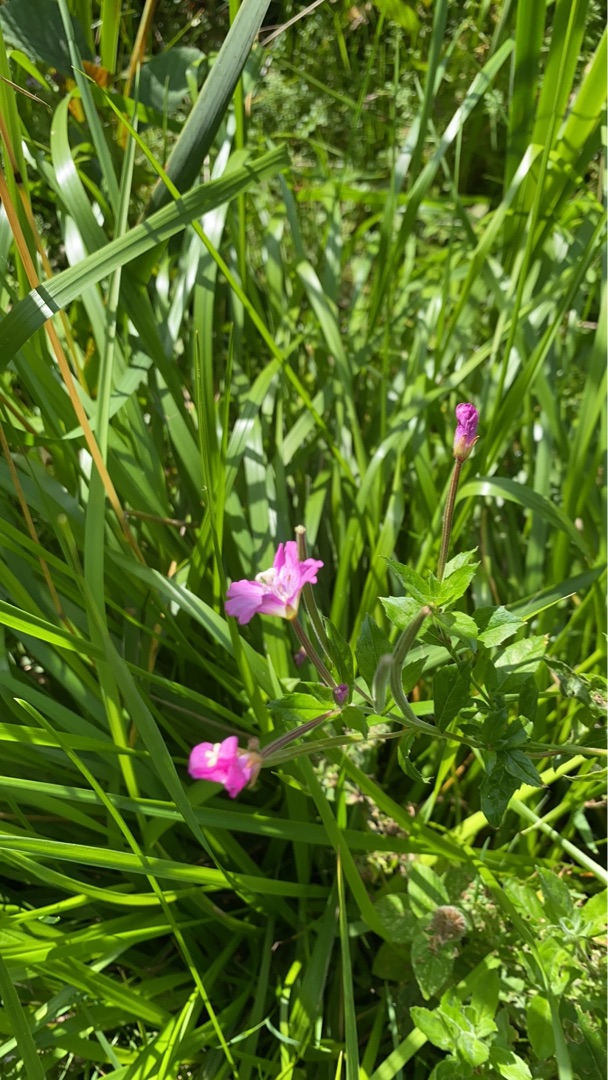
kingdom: Plantae
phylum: Tracheophyta
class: Magnoliopsida
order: Myrtales
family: Onagraceae
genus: Epilobium
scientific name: Epilobium hirsutum
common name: Lådden dueurt
